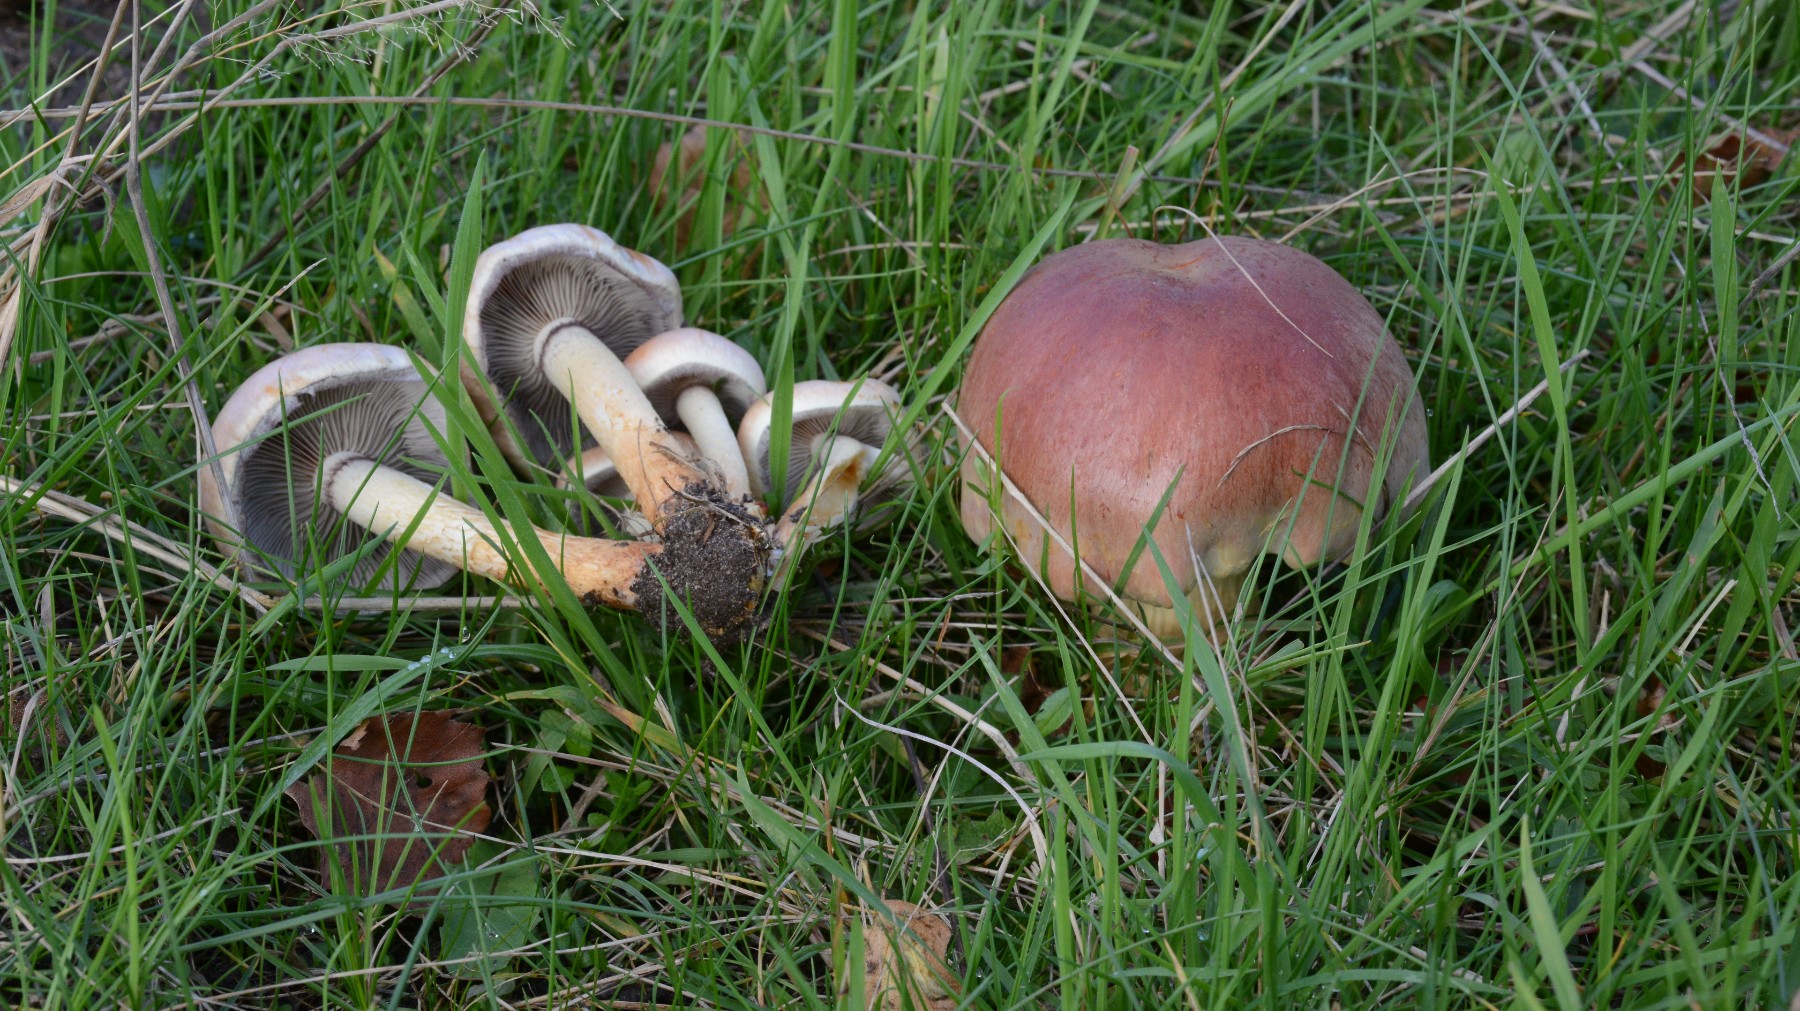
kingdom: Fungi
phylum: Basidiomycota
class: Agaricomycetes
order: Agaricales
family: Strophariaceae
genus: Hypholoma
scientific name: Hypholoma lateritium
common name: teglrød svovlhat
